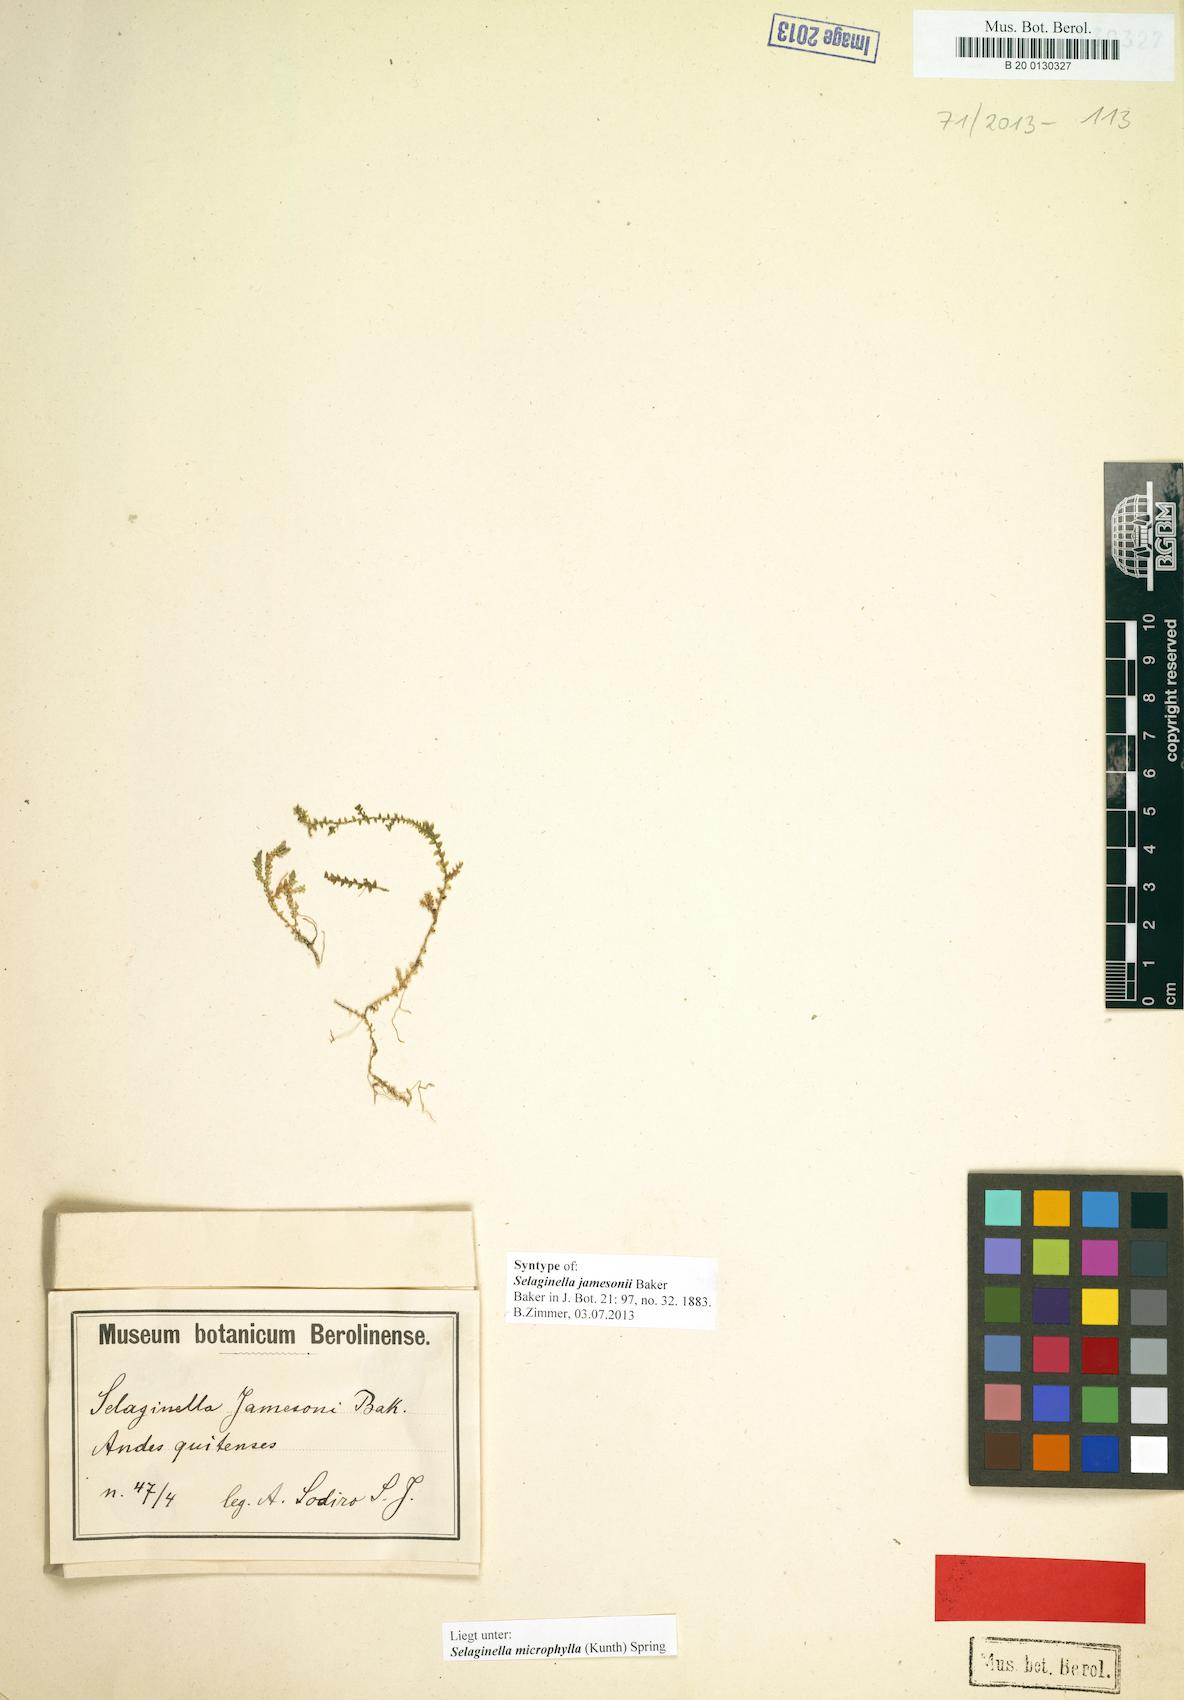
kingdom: Plantae
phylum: Tracheophyta
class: Lycopodiopsida
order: Selaginellales
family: Selaginellaceae
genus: Selaginella
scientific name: Selaginella microphylla
